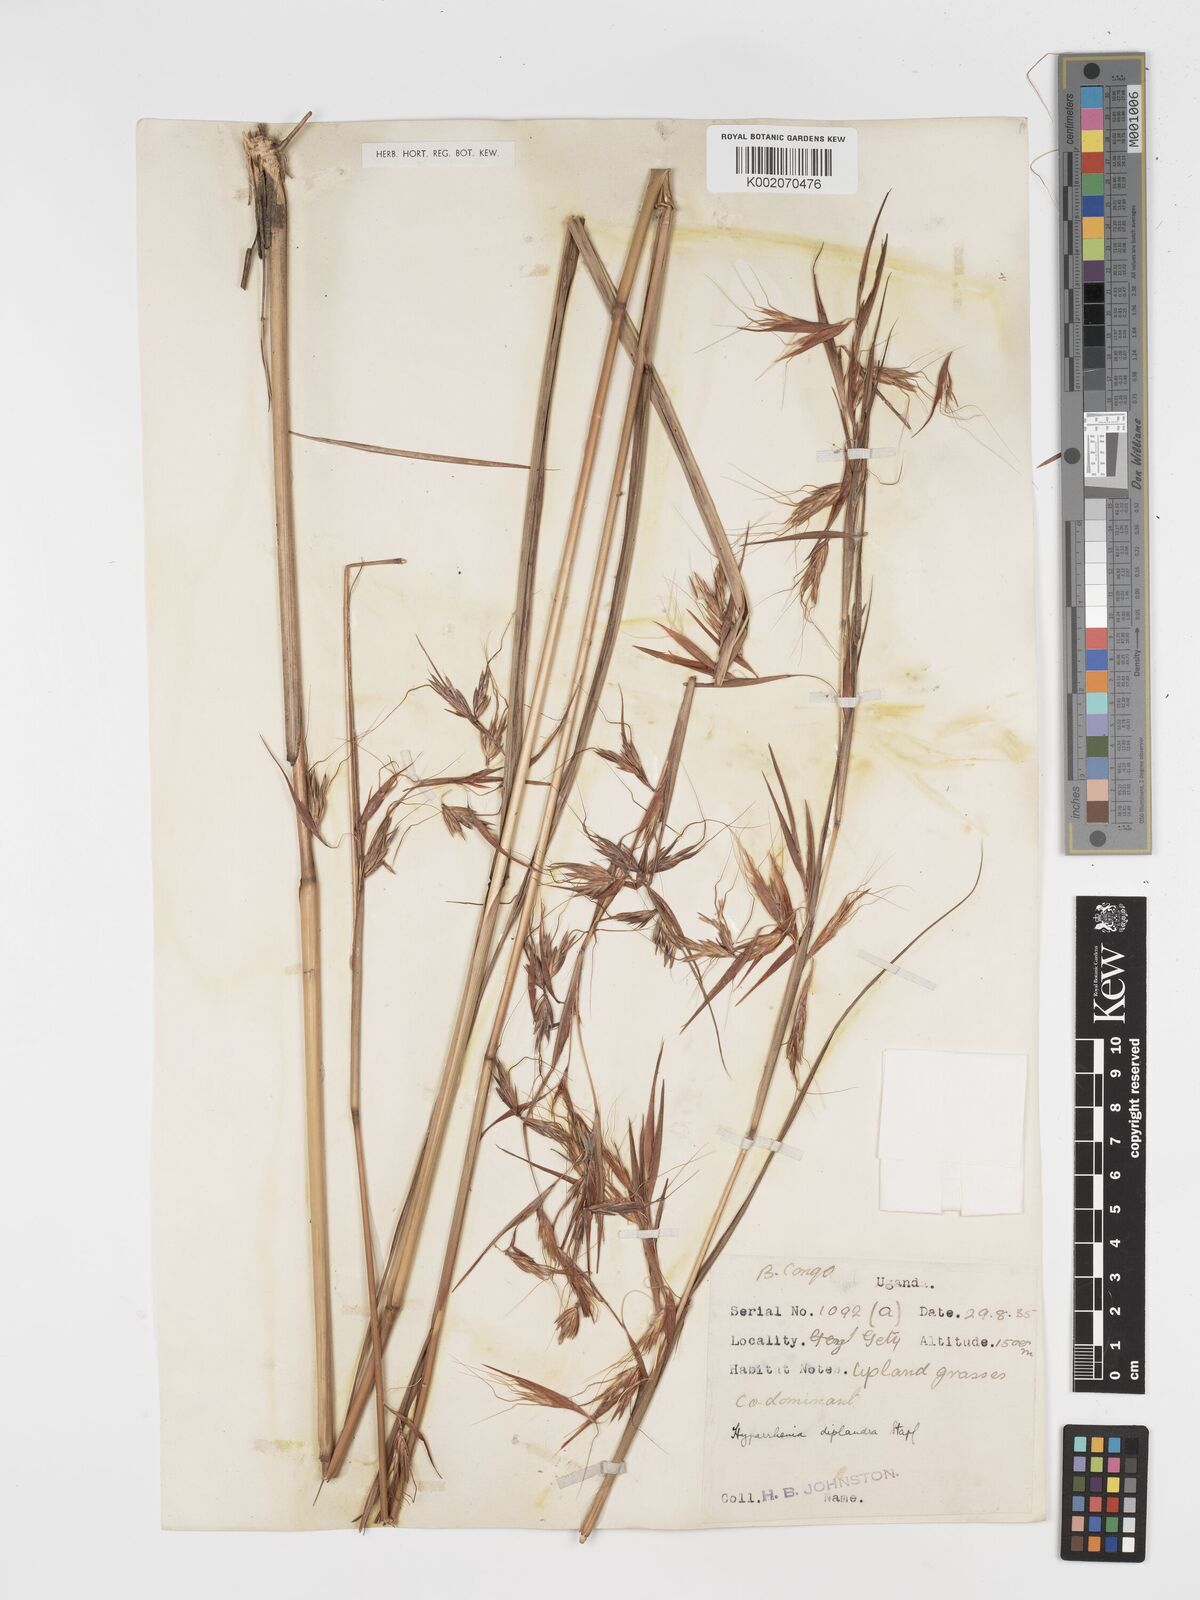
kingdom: Plantae
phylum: Tracheophyta
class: Liliopsida
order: Poales
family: Poaceae
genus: Hyparrhenia
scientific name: Hyparrhenia diplandra
